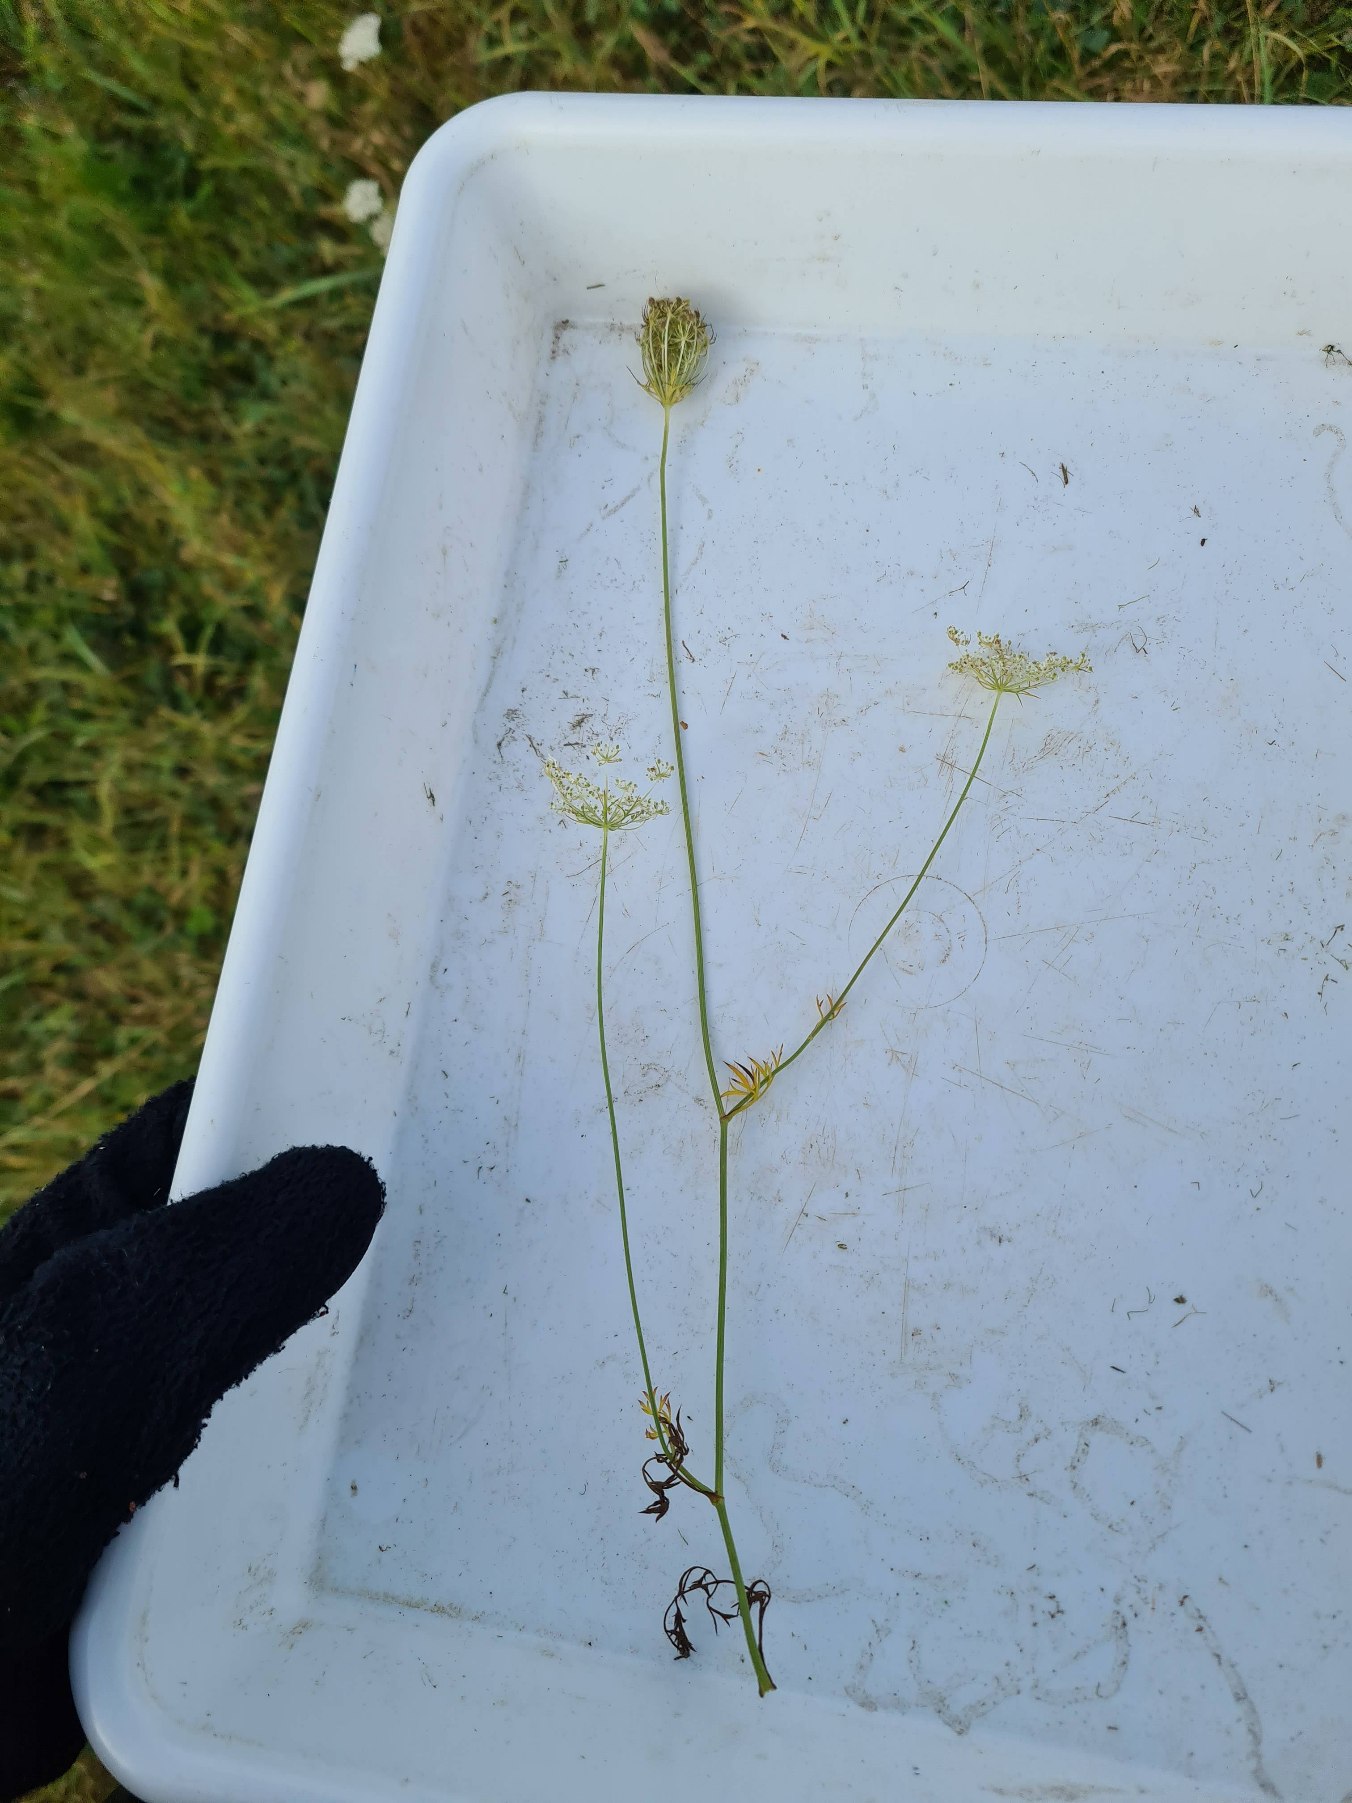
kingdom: Plantae
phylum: Tracheophyta
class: Magnoliopsida
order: Apiales
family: Apiaceae
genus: Daucus
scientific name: Daucus carota
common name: Gulerod
